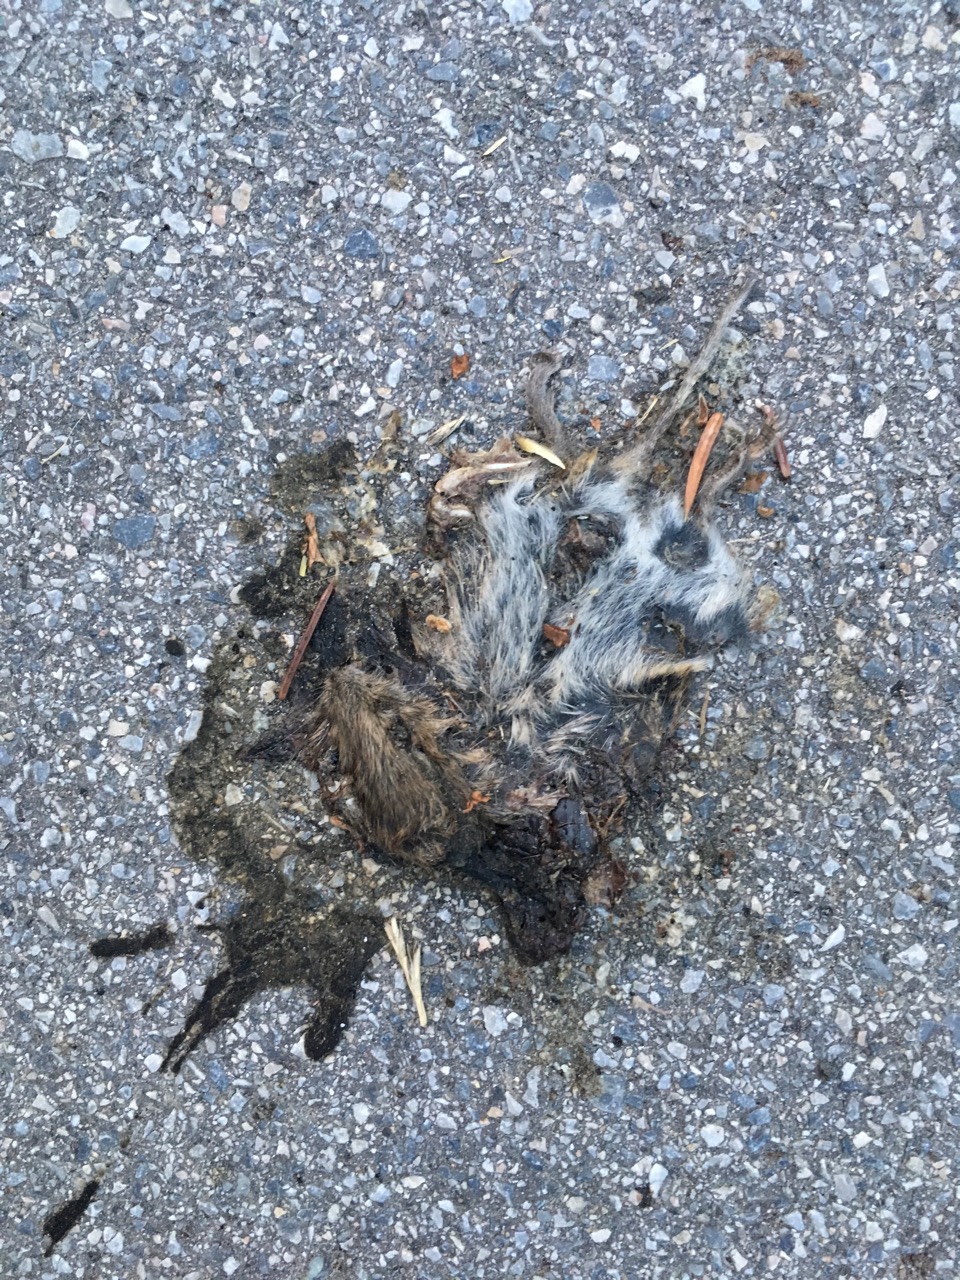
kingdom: Animalia
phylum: Chordata
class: Mammalia
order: Rodentia
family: Cricetidae
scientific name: Cricetidae
